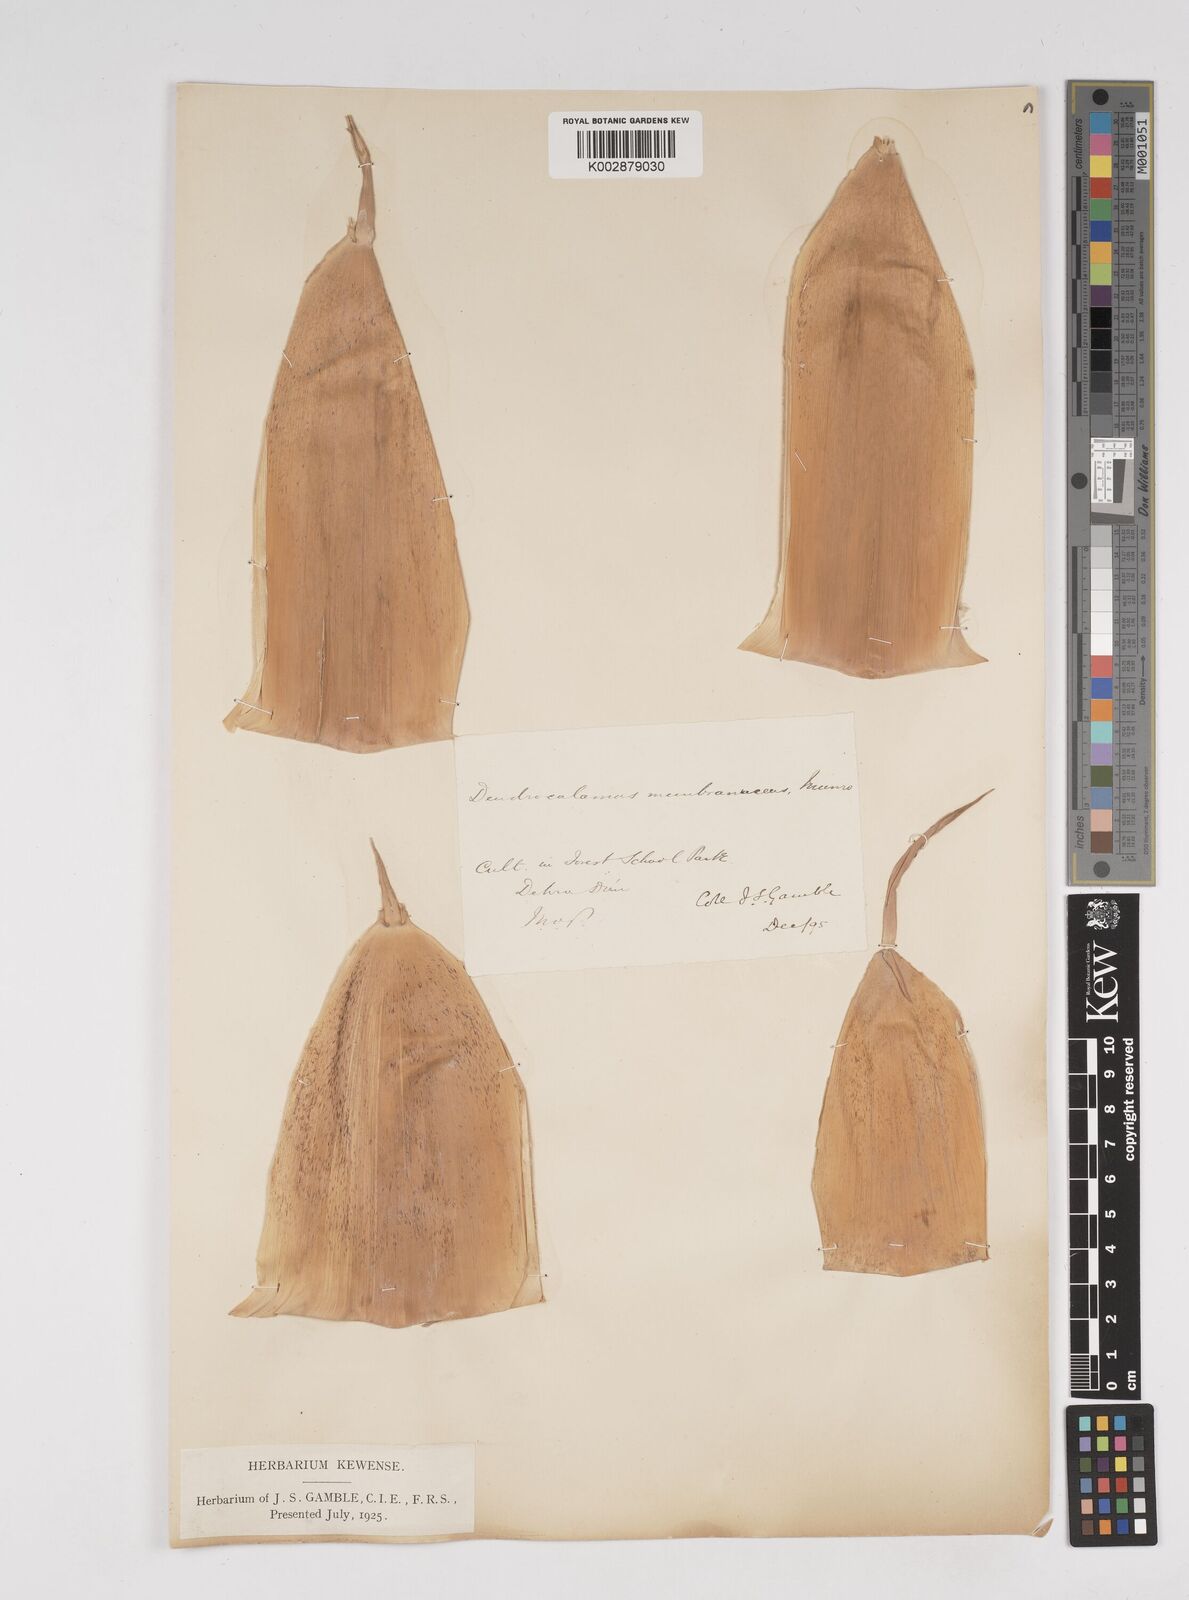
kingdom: Plantae
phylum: Tracheophyta
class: Liliopsida
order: Poales
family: Poaceae
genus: Dendrocalamus
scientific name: Dendrocalamus membranaceus
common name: White bamboo
